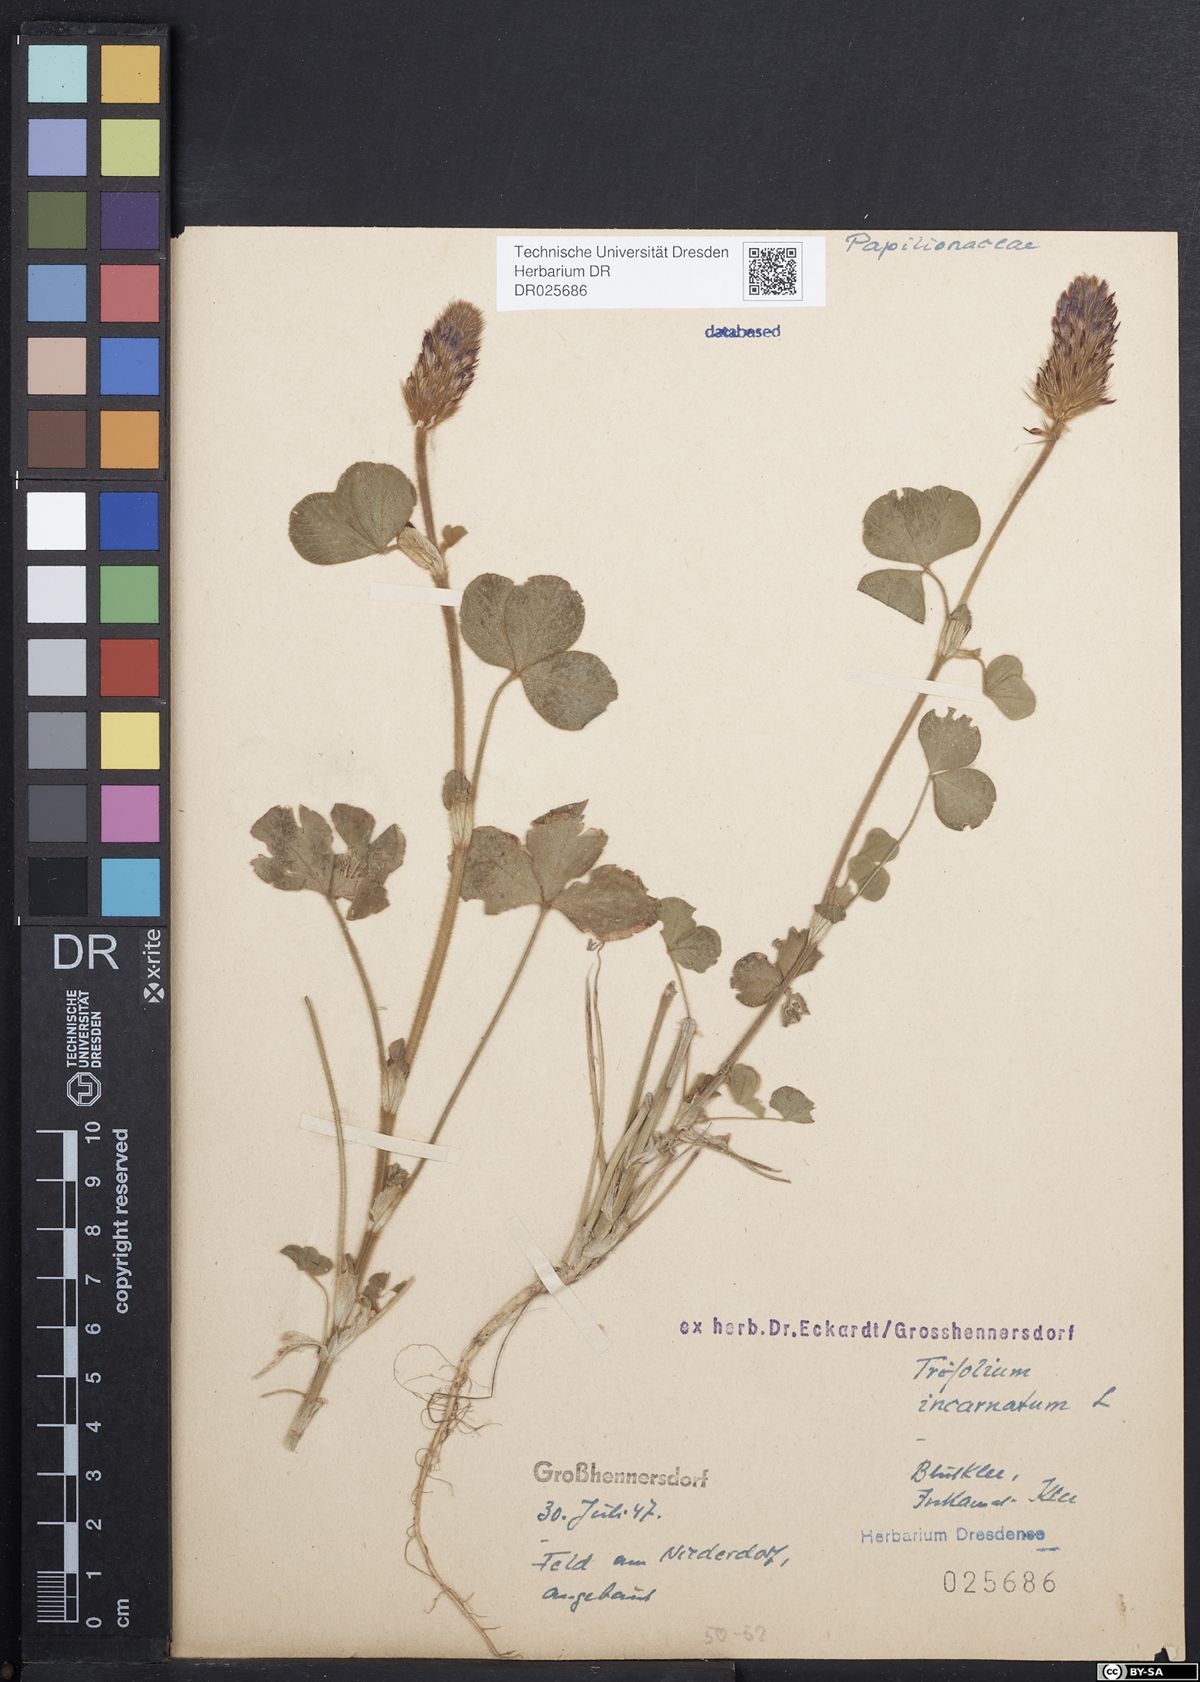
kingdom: Plantae
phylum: Tracheophyta
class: Magnoliopsida
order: Fabales
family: Fabaceae
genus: Trifolium
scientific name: Trifolium incarnatum
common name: Crimson clover
